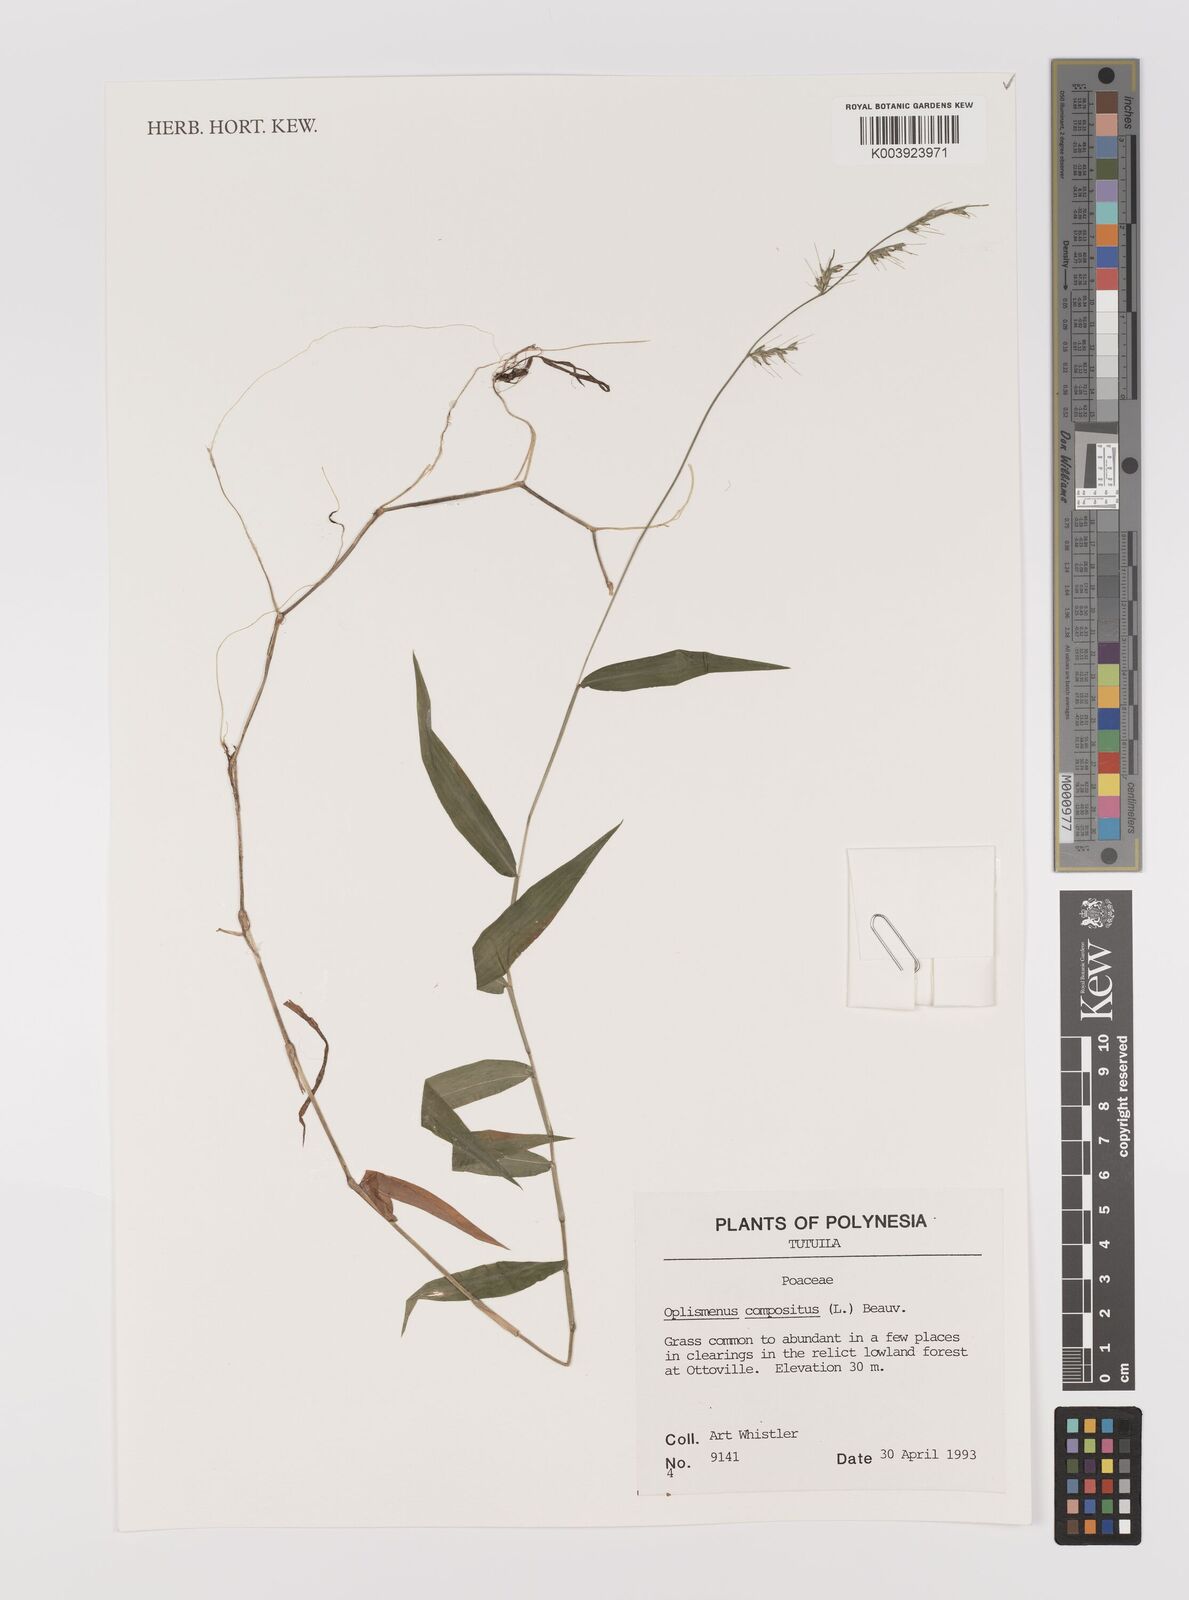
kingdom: Plantae
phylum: Tracheophyta
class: Liliopsida
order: Poales
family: Poaceae
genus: Oplismenus
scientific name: Oplismenus compositus
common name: Running mountain grass
